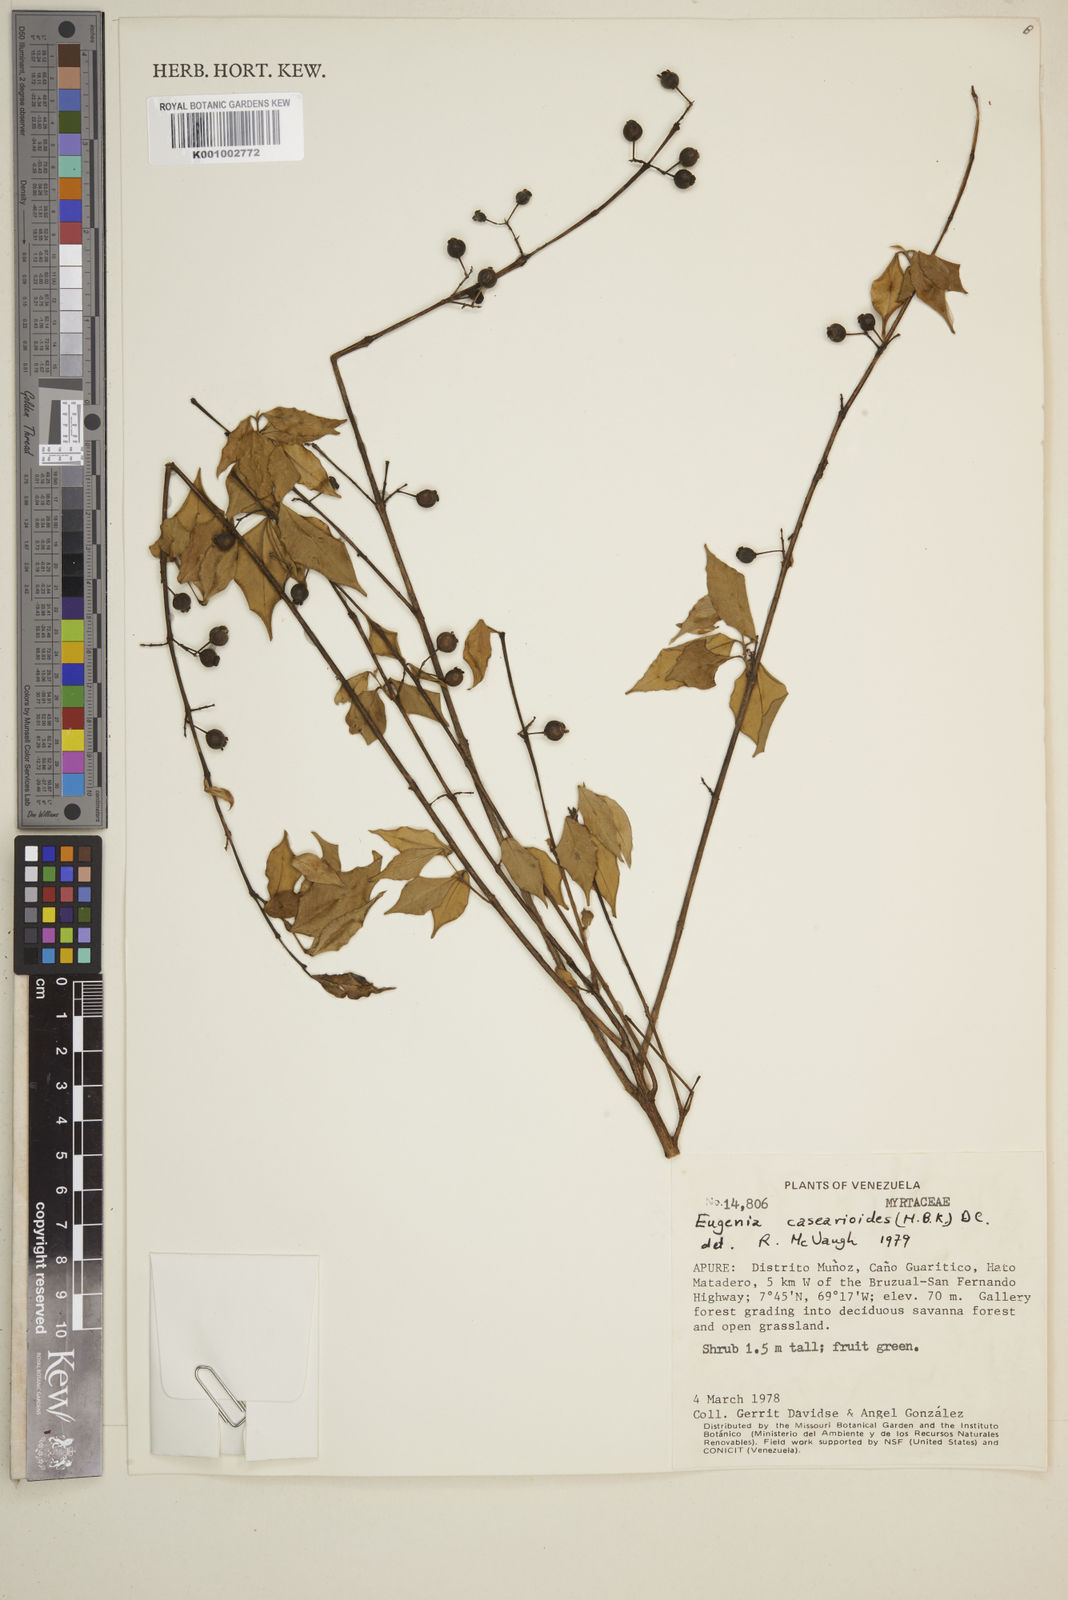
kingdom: Plantae
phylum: Tracheophyta
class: Magnoliopsida
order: Myrtales
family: Myrtaceae
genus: Eugenia
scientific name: Eugenia casearioides
